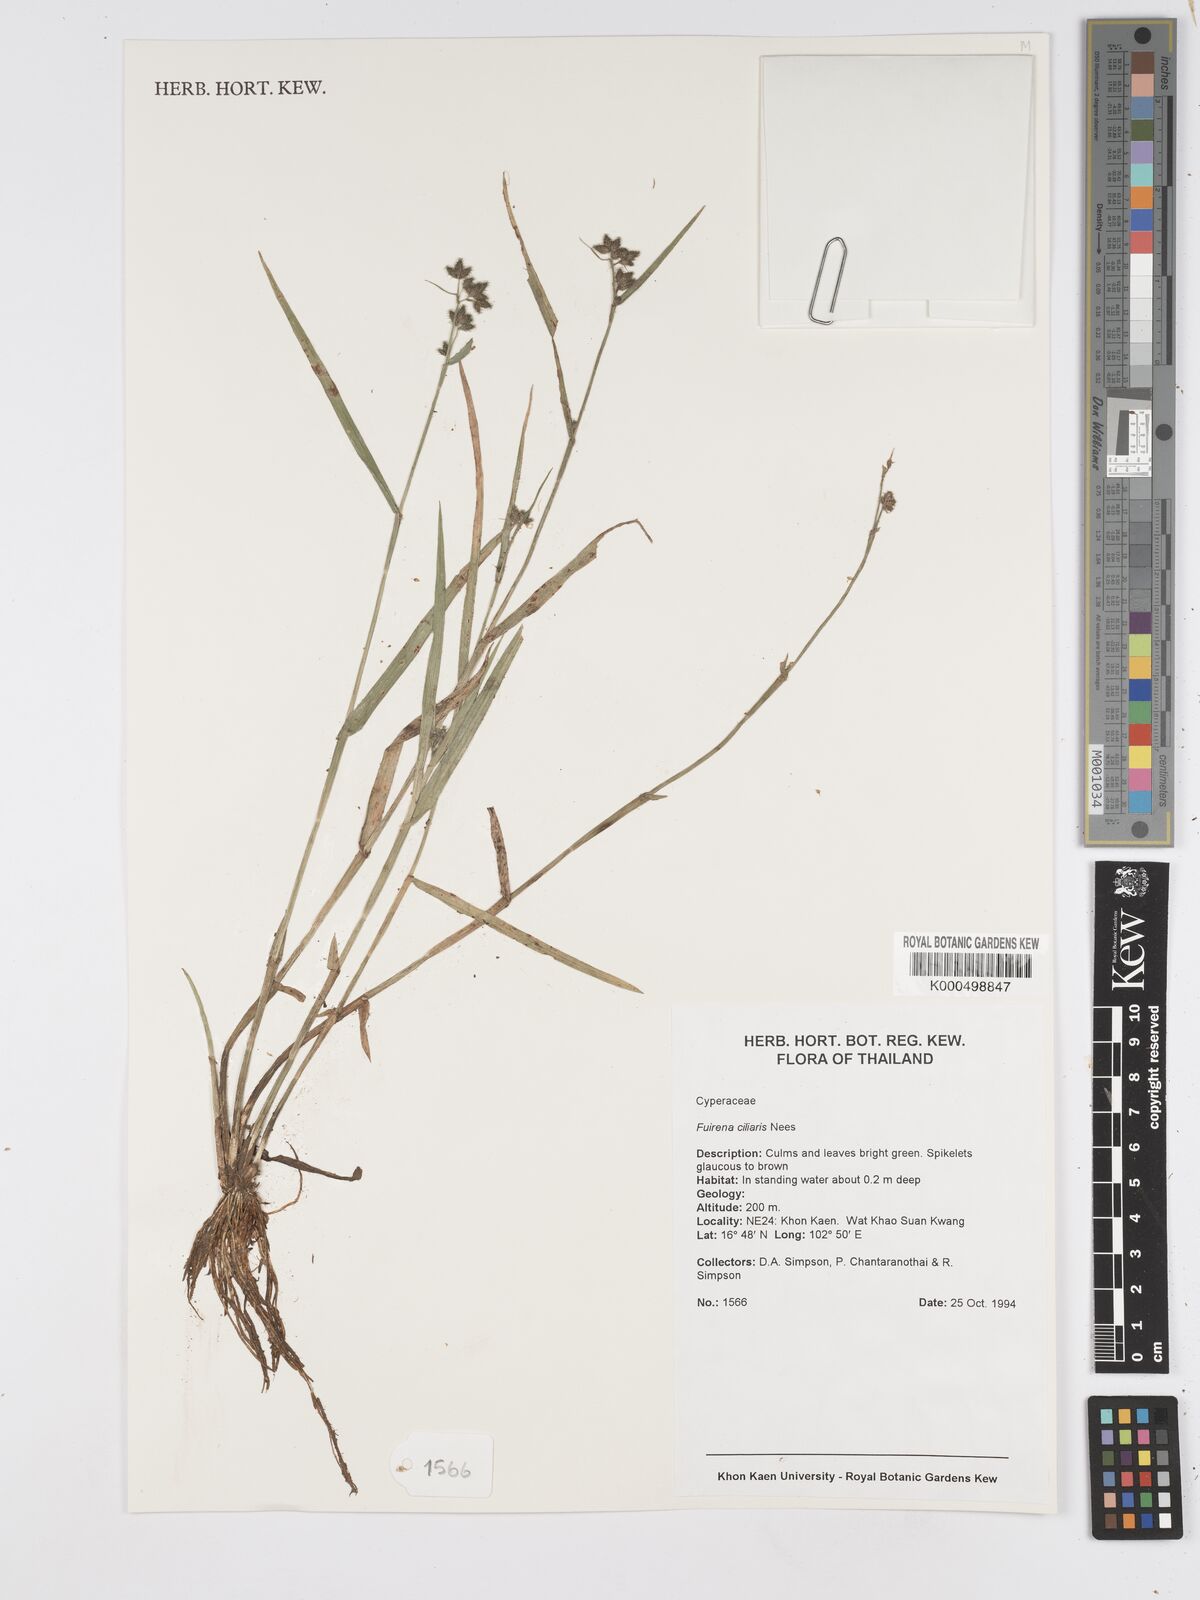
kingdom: Plantae
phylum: Tracheophyta
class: Liliopsida
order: Poales
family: Cyperaceae
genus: Fuirena
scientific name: Fuirena ciliaris
